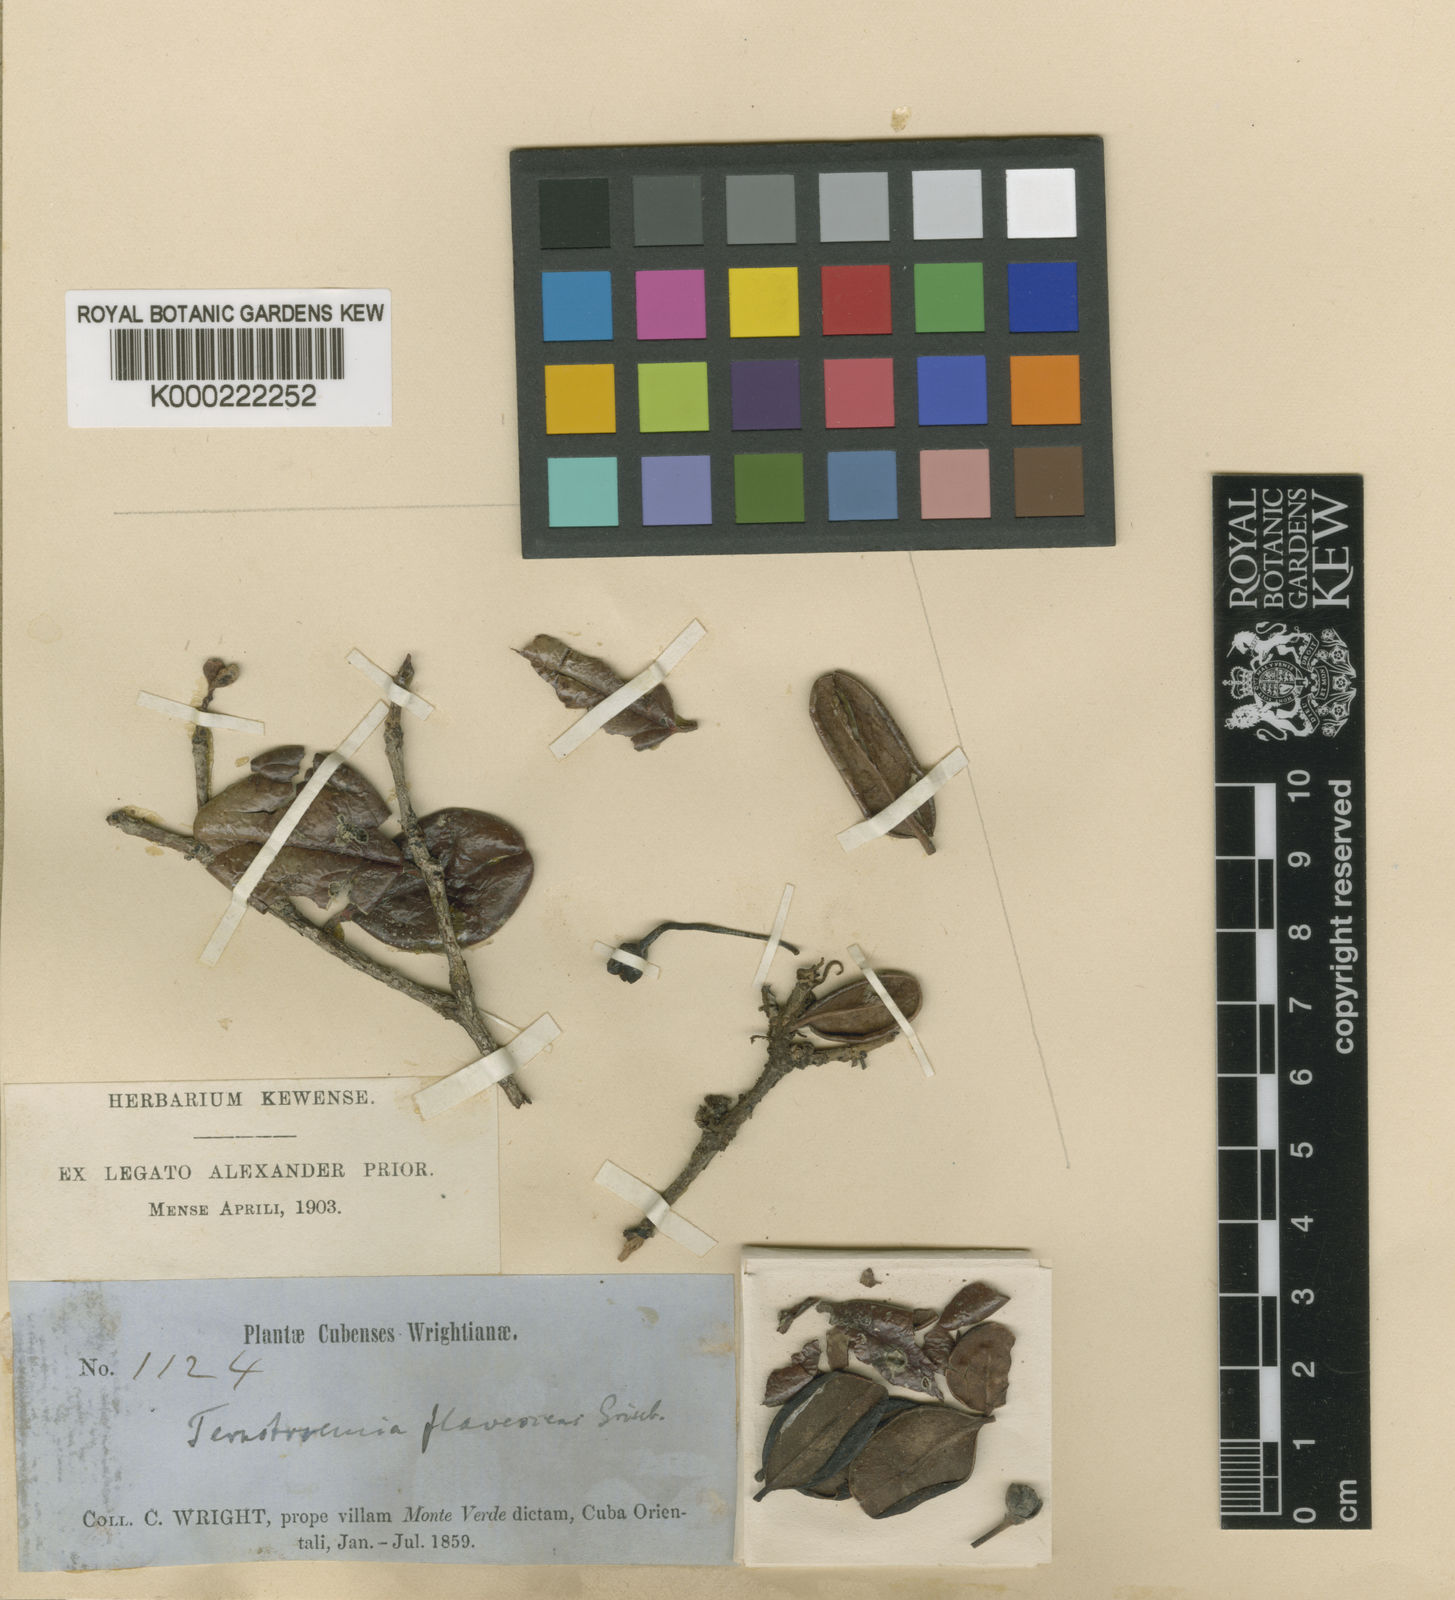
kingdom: Plantae
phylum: Tracheophyta
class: Magnoliopsida
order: Ericales
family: Pentaphylacaceae
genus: Ternstroemia
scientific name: Ternstroemia flavescens
